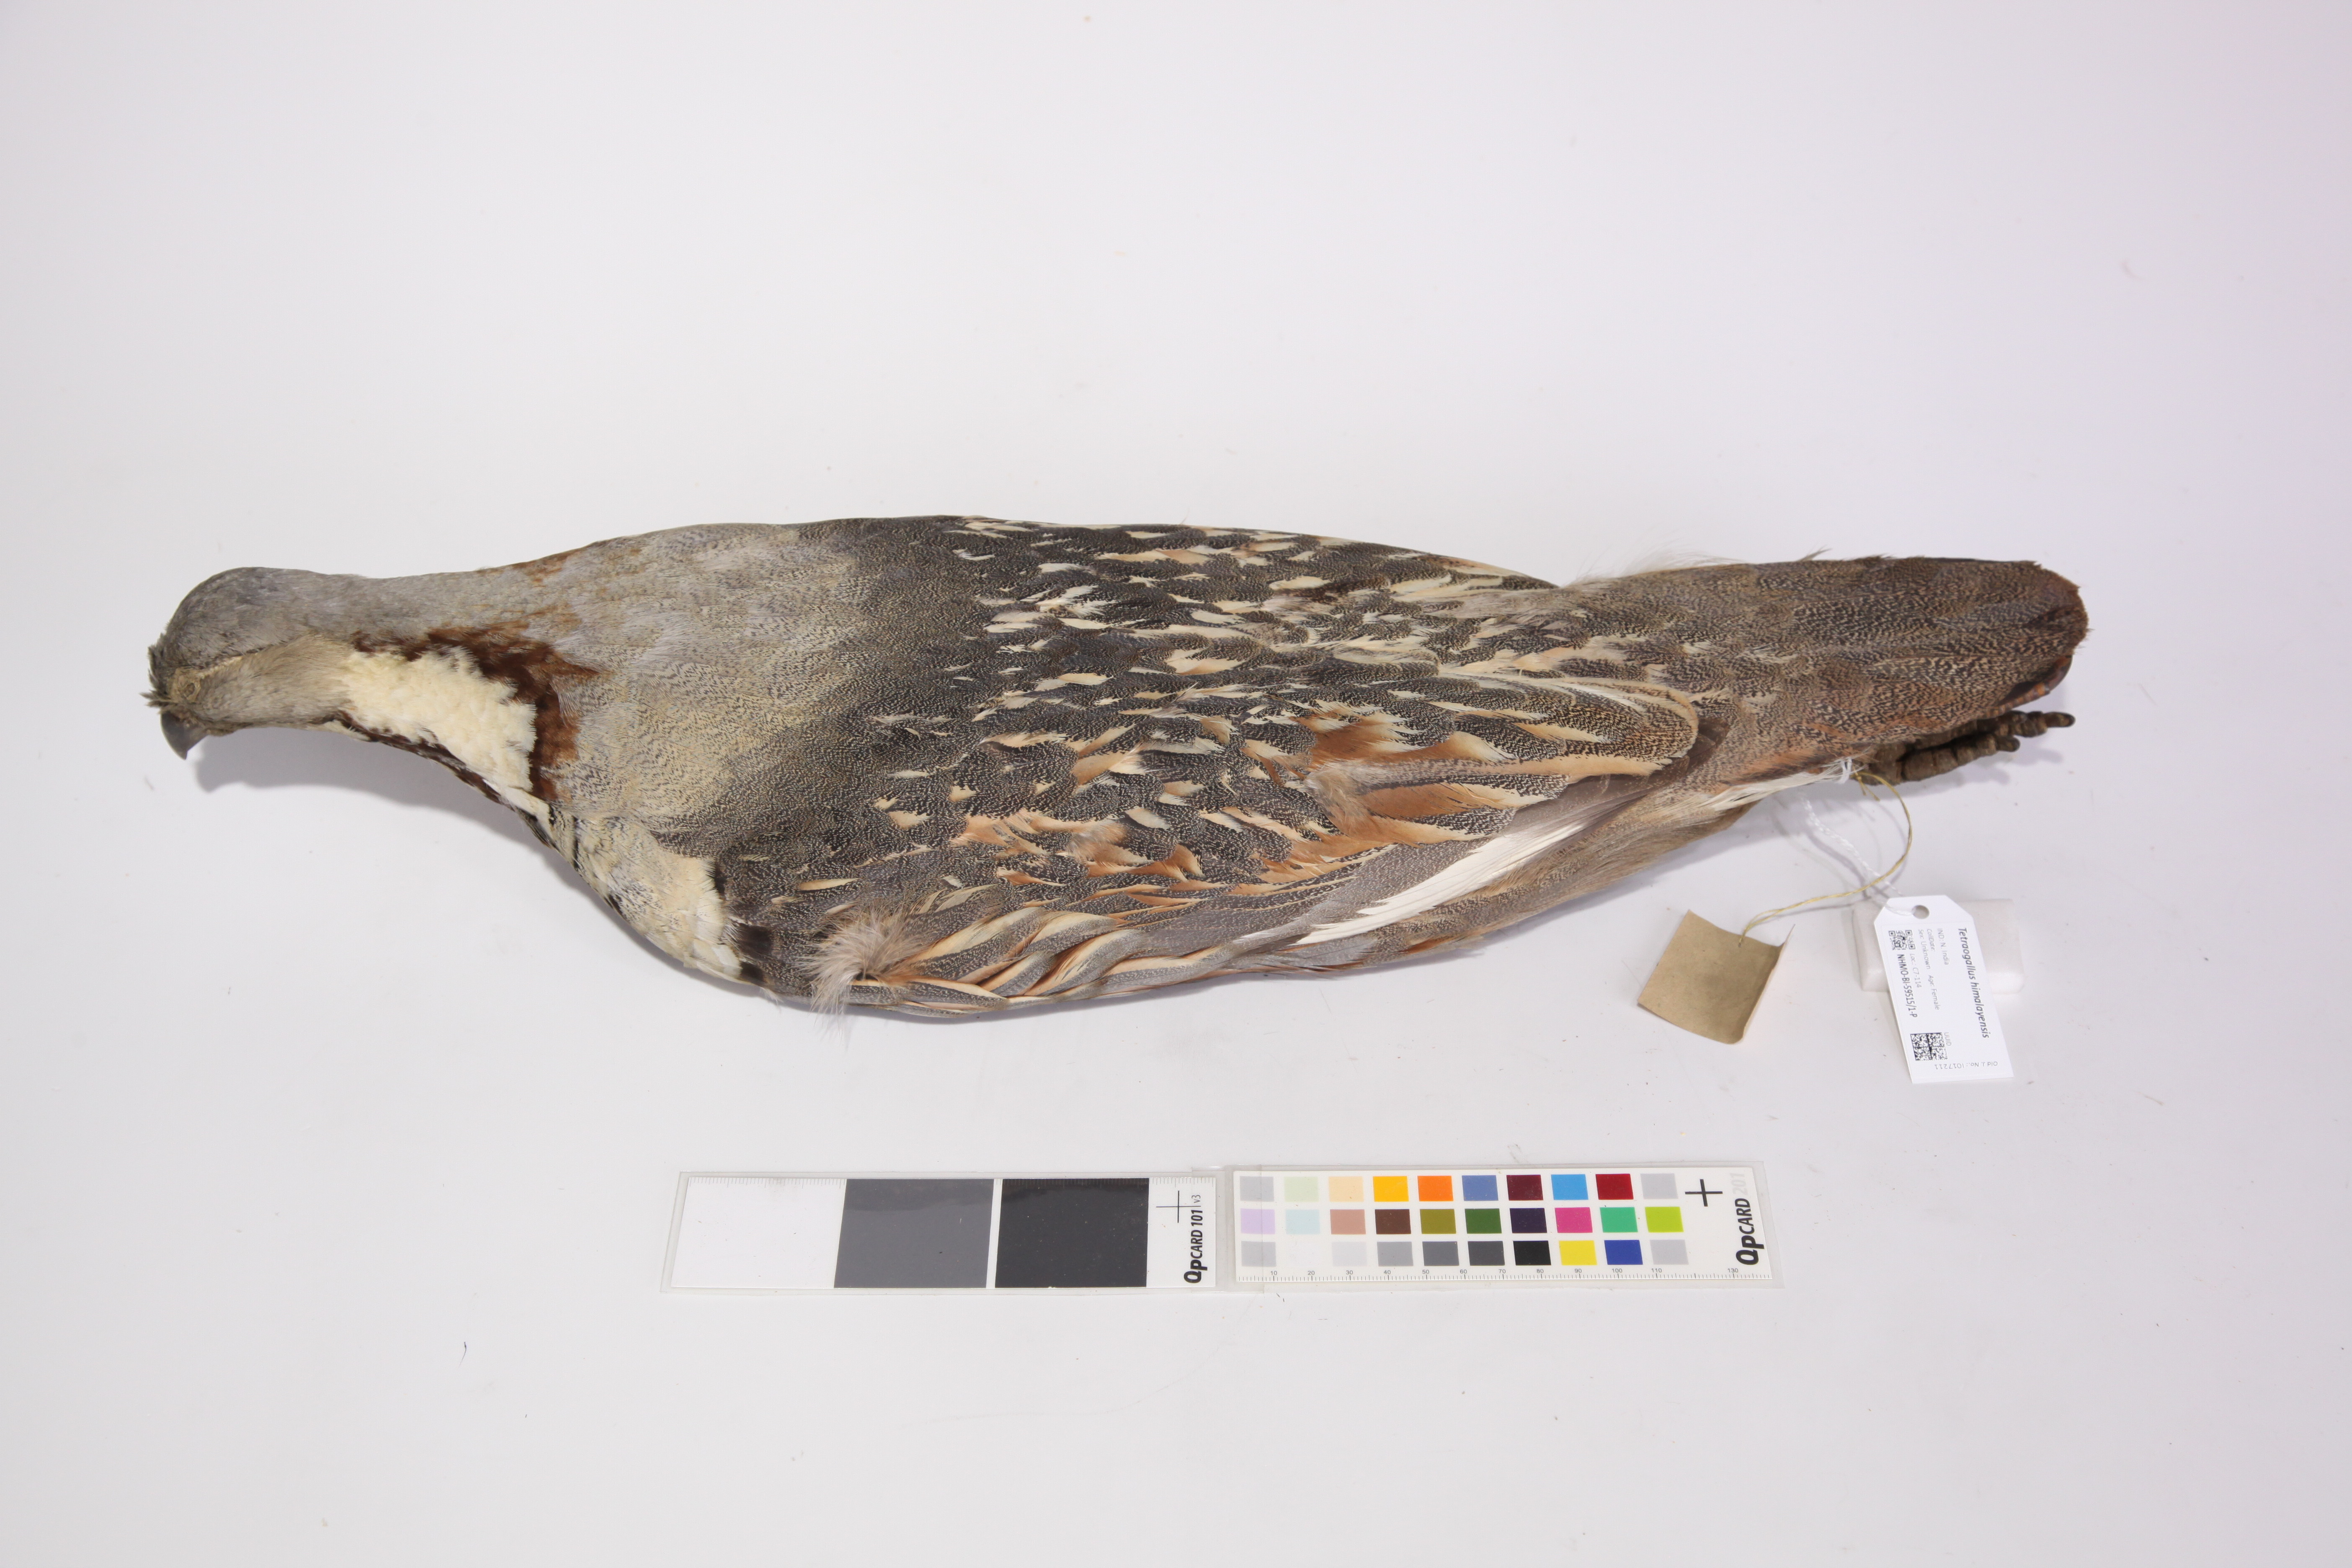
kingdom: Animalia
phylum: Chordata
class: Aves
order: Galliformes
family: Phasianidae
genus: Tetraogallus
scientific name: Tetraogallus himalayensis
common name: Himalayan snowcock
